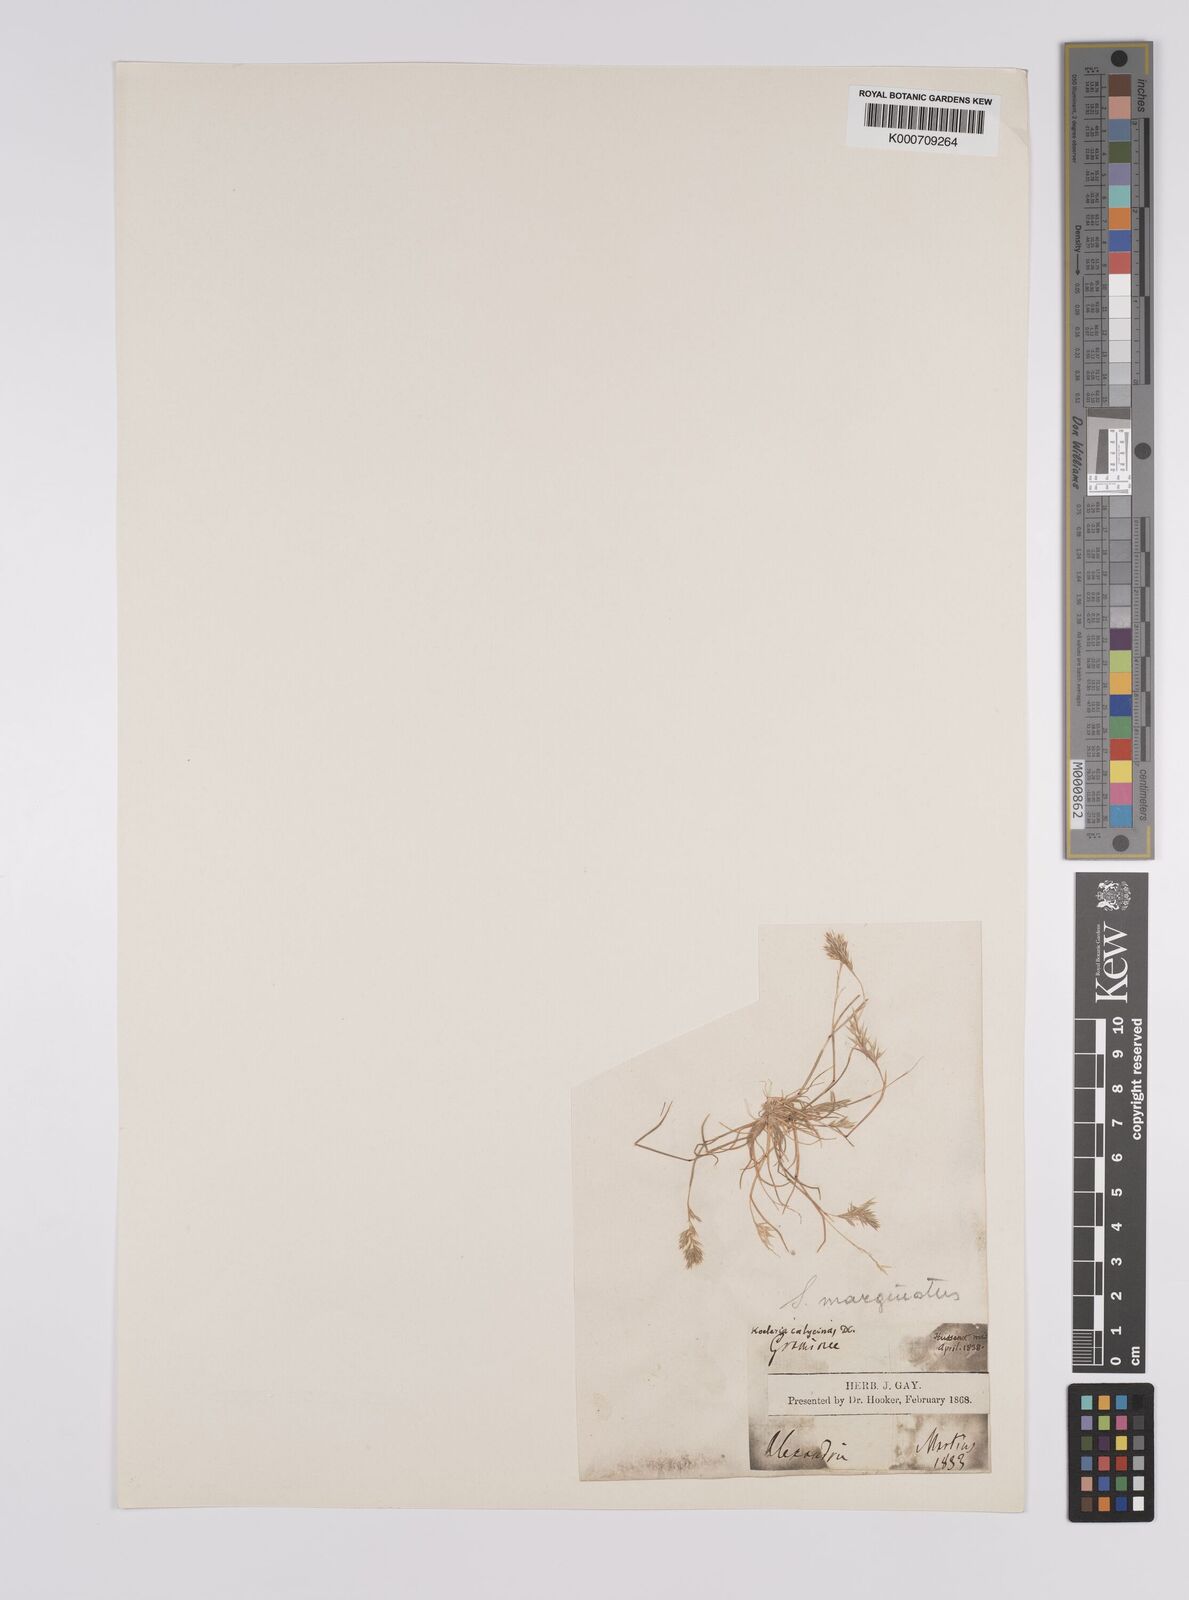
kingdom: Plantae
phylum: Tracheophyta
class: Liliopsida
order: Poales
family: Poaceae
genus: Schismus
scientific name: Schismus barbatus
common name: Kelch-grass
